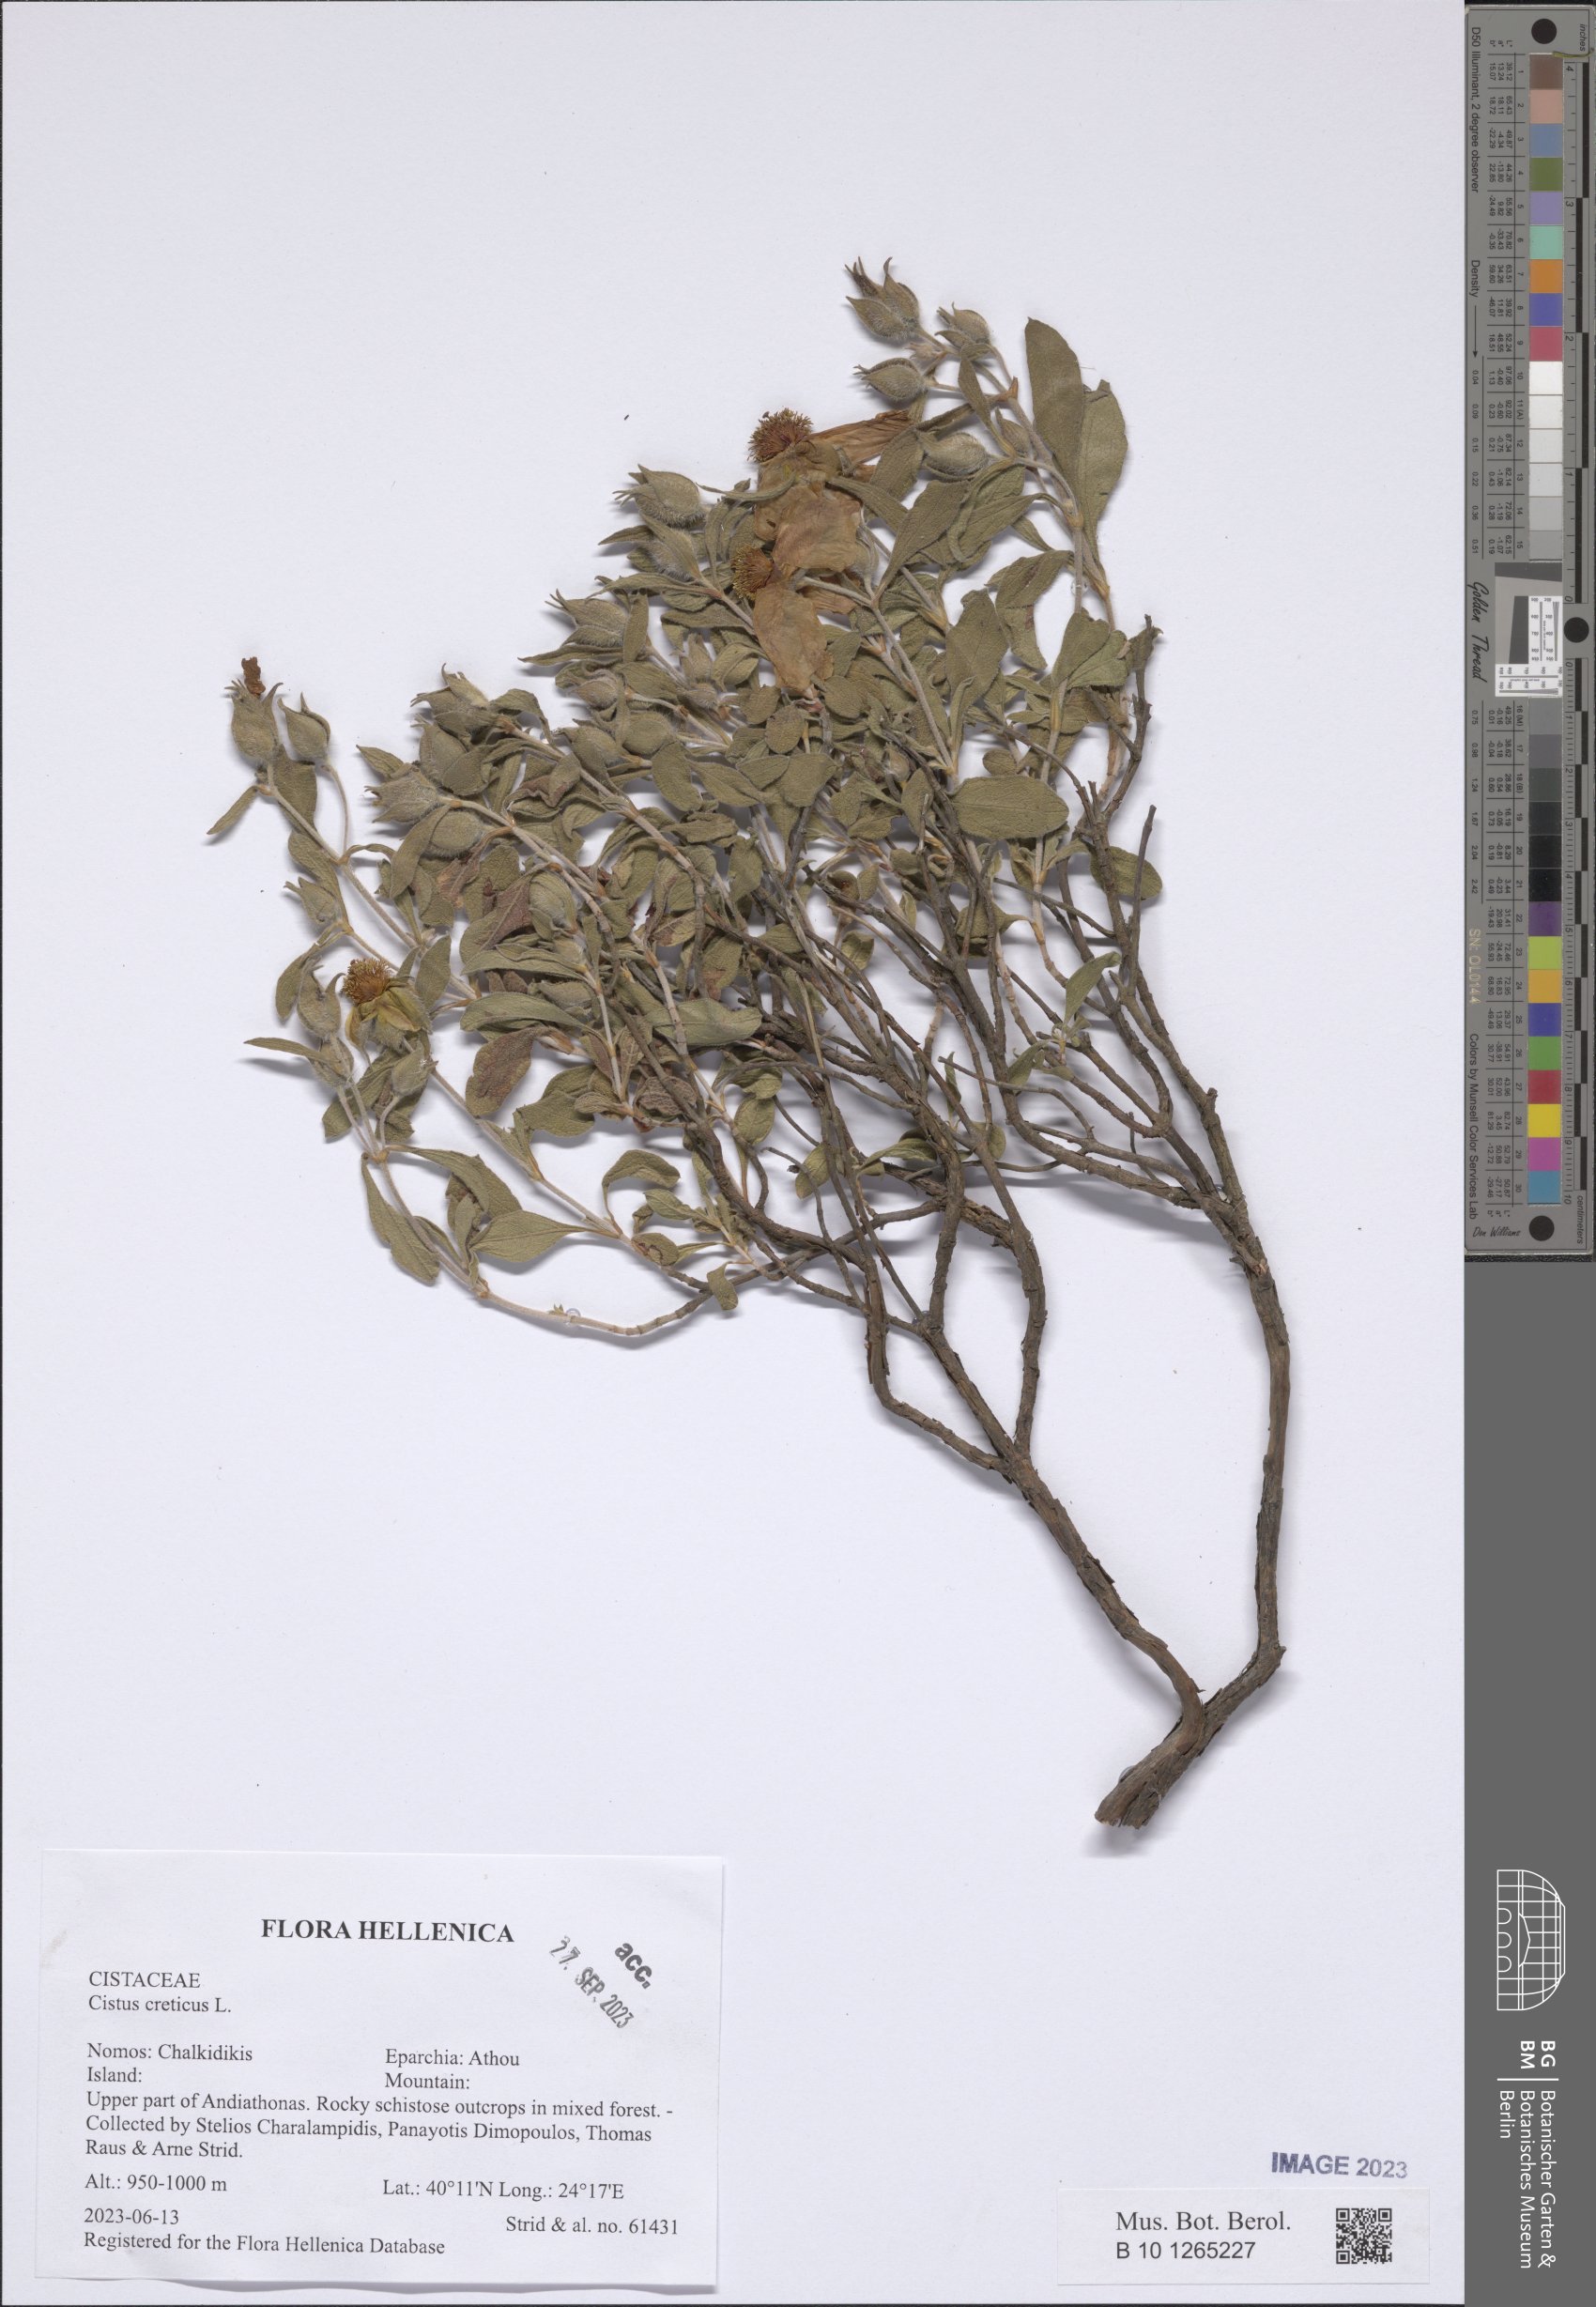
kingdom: Plantae
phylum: Tracheophyta
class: Magnoliopsida
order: Malvales
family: Cistaceae
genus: Cistus
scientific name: Cistus creticus
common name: Cretan rockrose
